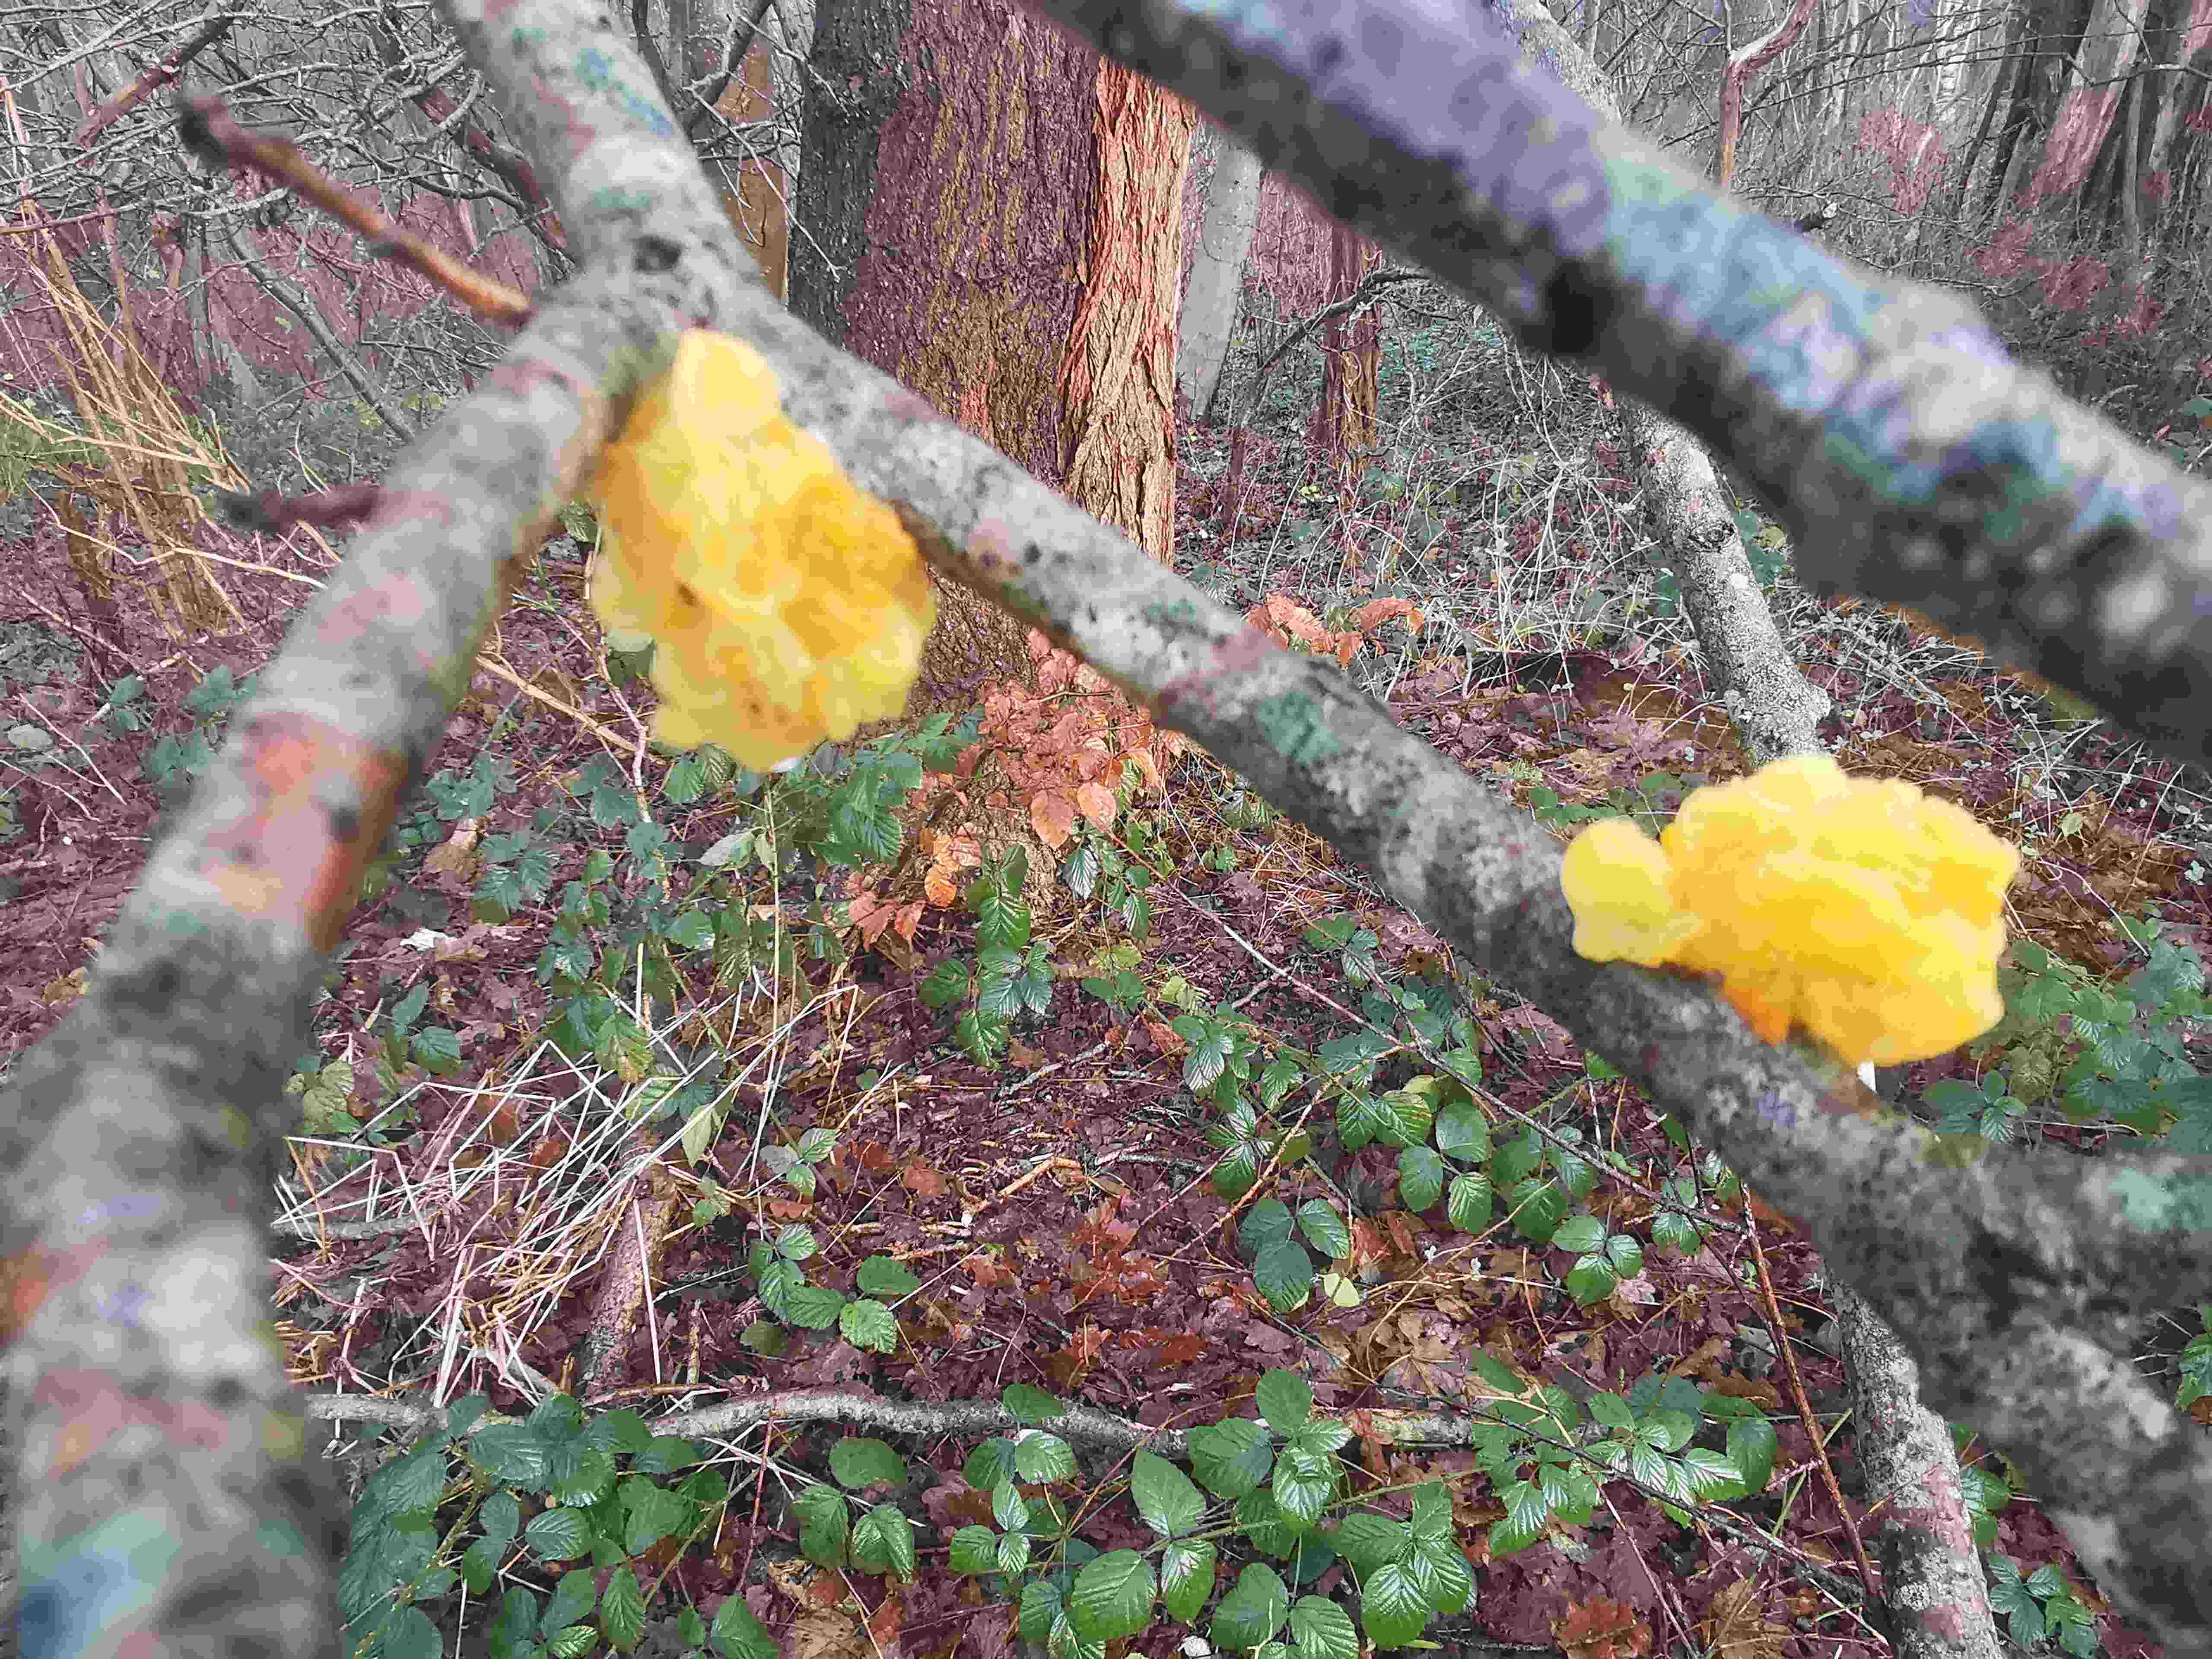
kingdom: Fungi
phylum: Basidiomycota
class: Tremellomycetes
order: Tremellales
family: Tremellaceae
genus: Tremella
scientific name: Tremella mesenterica
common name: gul bævresvamp
